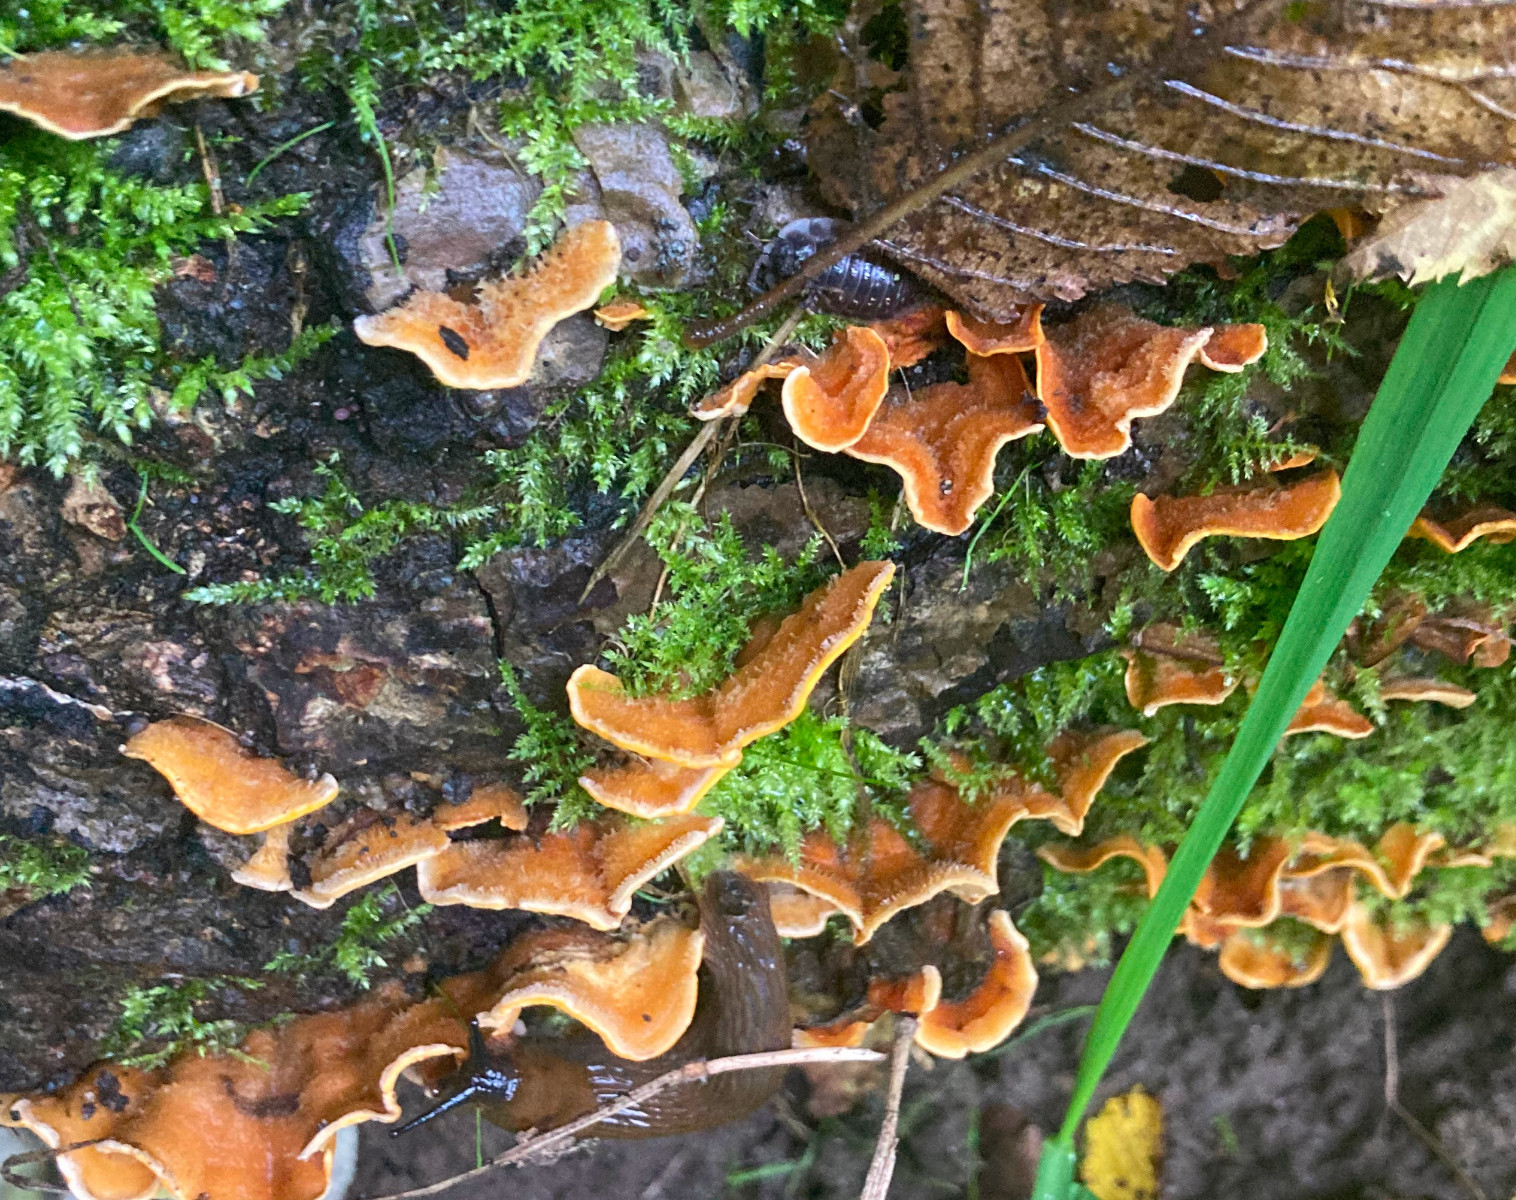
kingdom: Fungi
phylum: Basidiomycota
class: Agaricomycetes
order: Russulales
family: Stereaceae
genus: Stereum
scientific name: Stereum hirsutum
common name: håret lædersvamp
